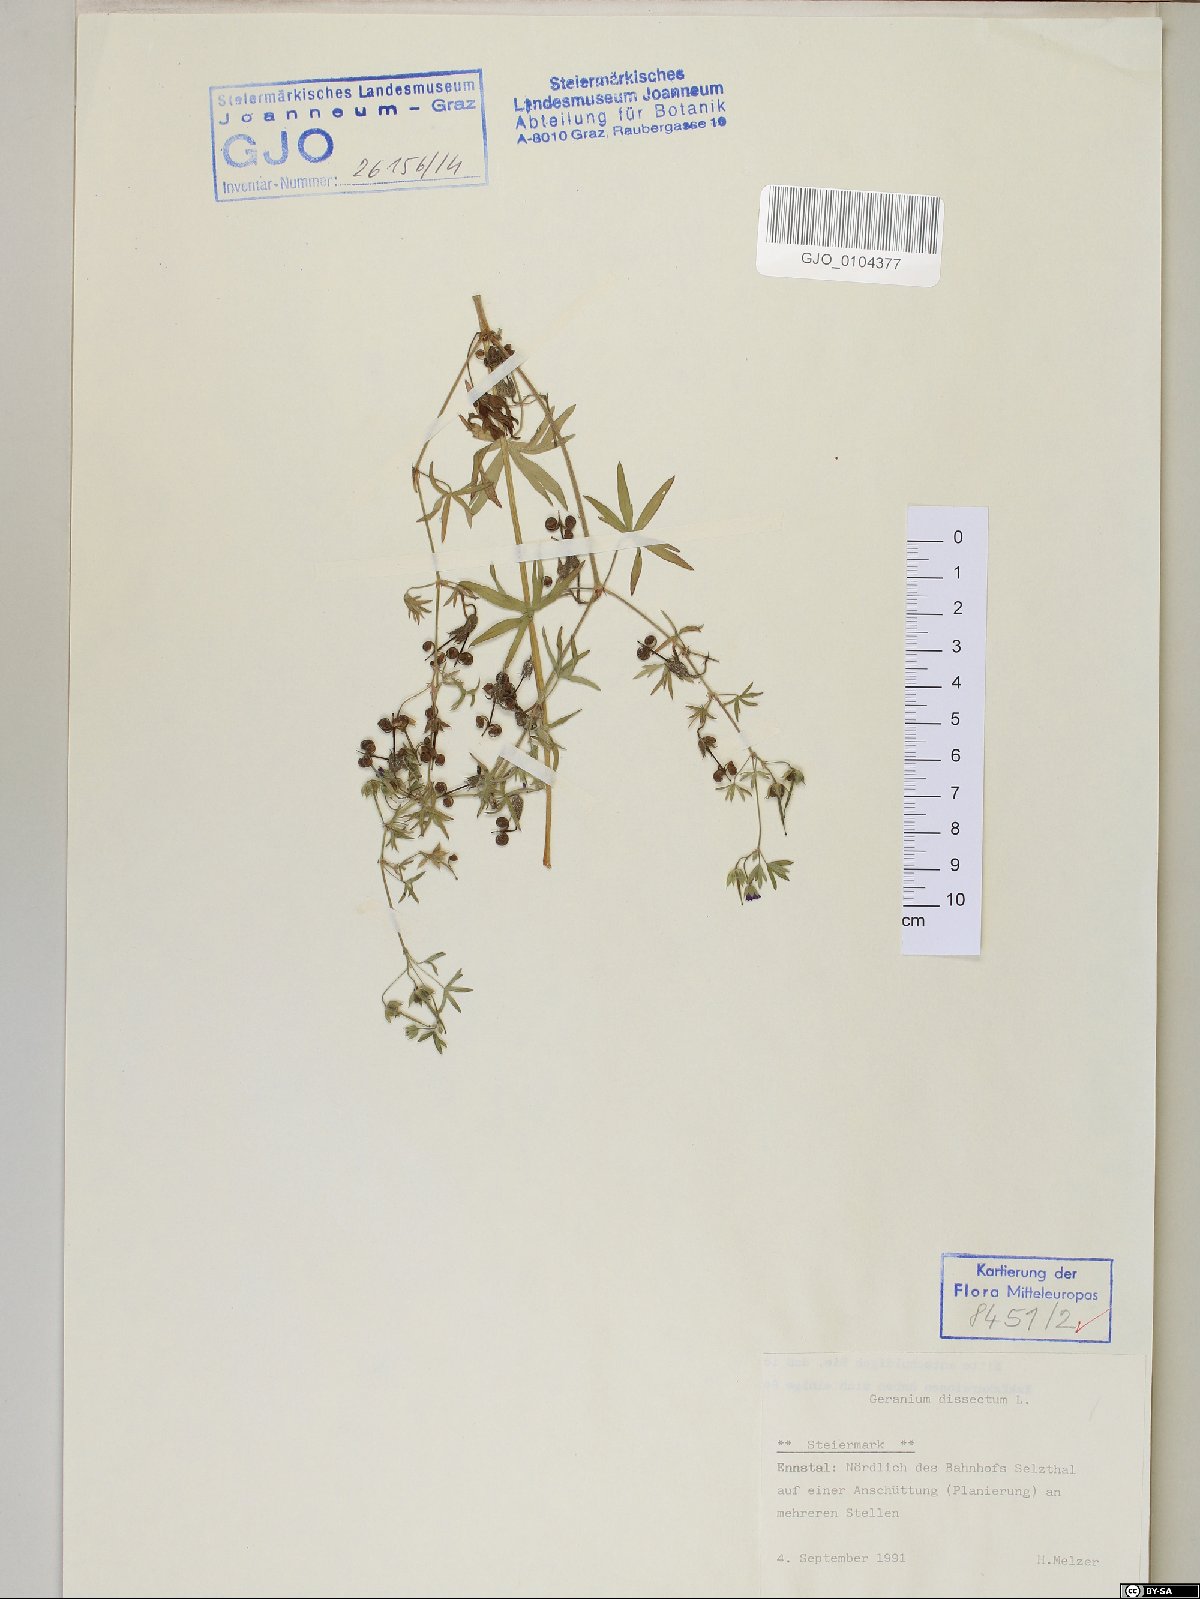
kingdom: Plantae
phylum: Tracheophyta
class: Magnoliopsida
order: Geraniales
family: Geraniaceae
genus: Geranium
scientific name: Geranium dissectum
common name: Cut-leaved crane's-bill
